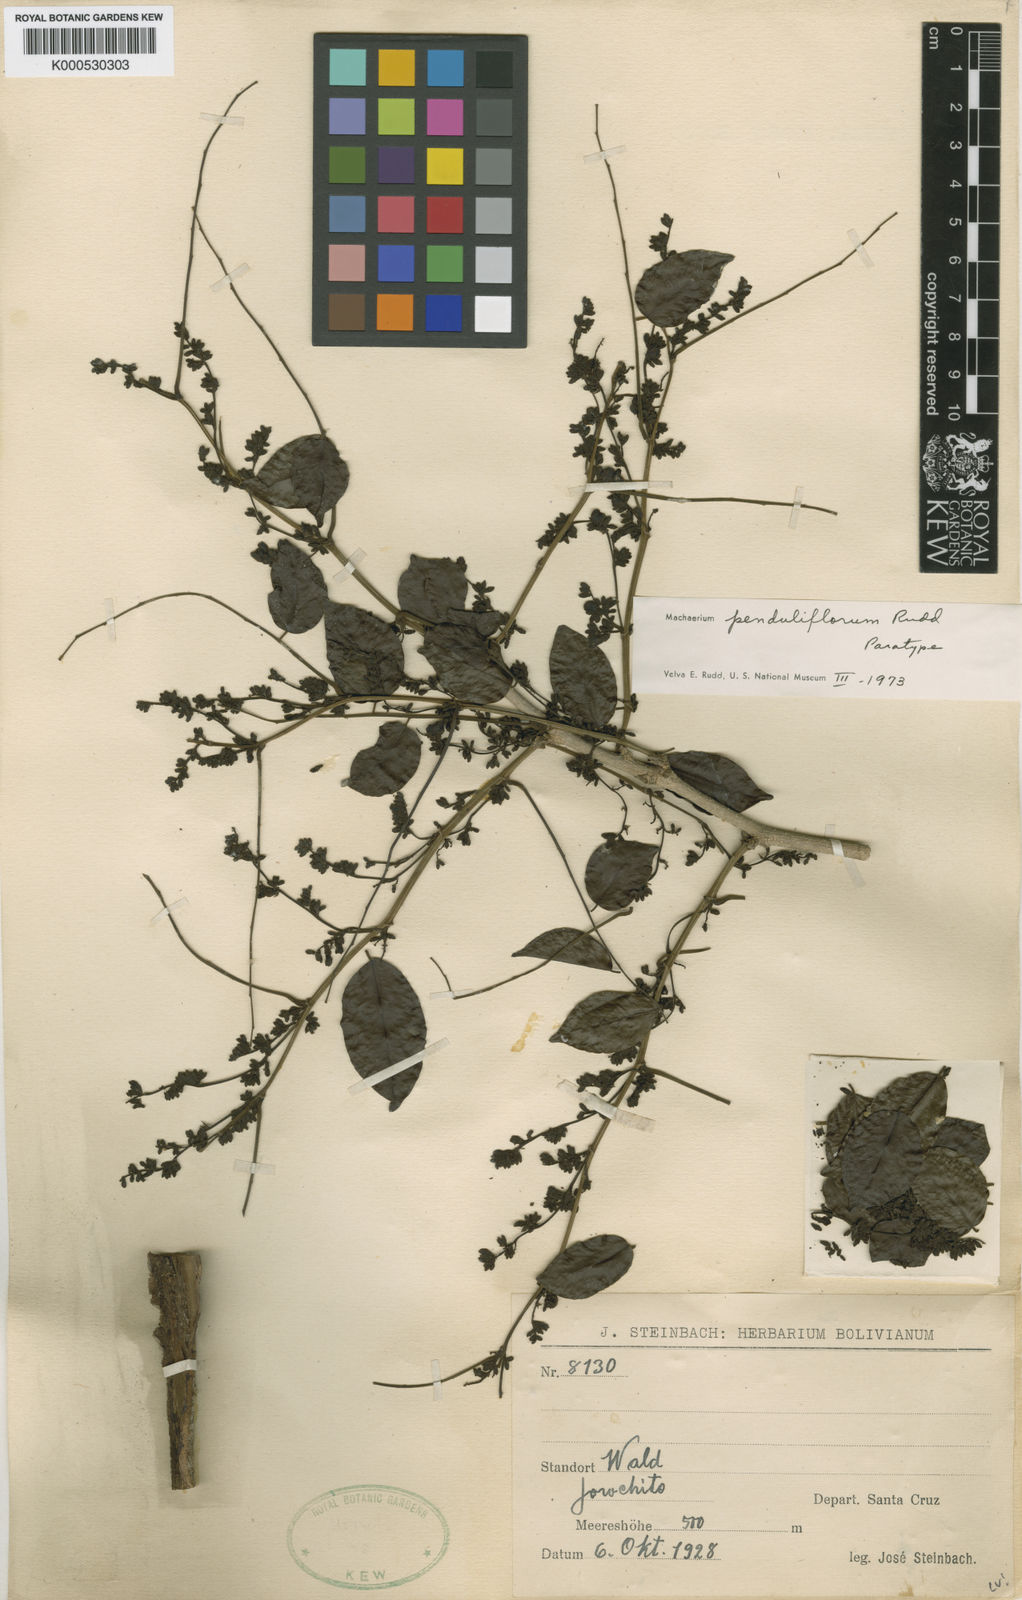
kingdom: Plantae
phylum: Tracheophyta
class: Magnoliopsida
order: Fabales
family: Fabaceae
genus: Machaerium
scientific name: Machaerium penduliflorum
